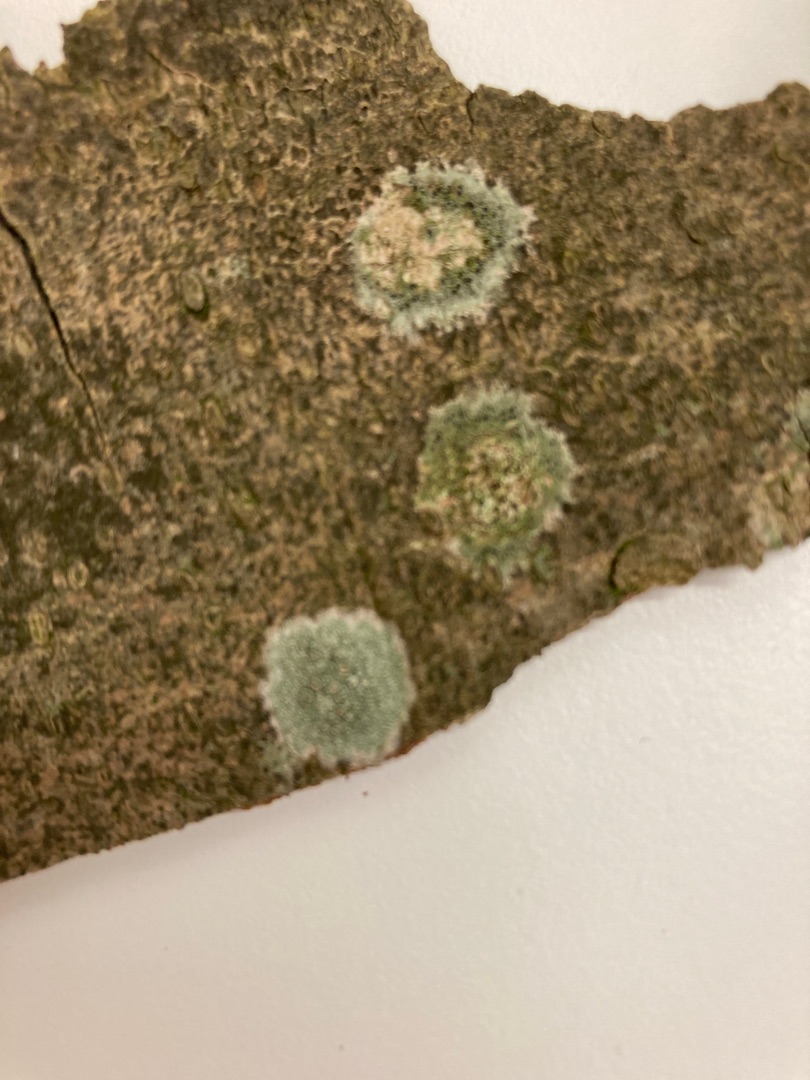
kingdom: Fungi
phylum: Ascomycota
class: Lecanoromycetes
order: Lecanorales
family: Lecanoraceae
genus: Lecidella
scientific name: Lecidella elaeochroma
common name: Grågrøn skivelav
